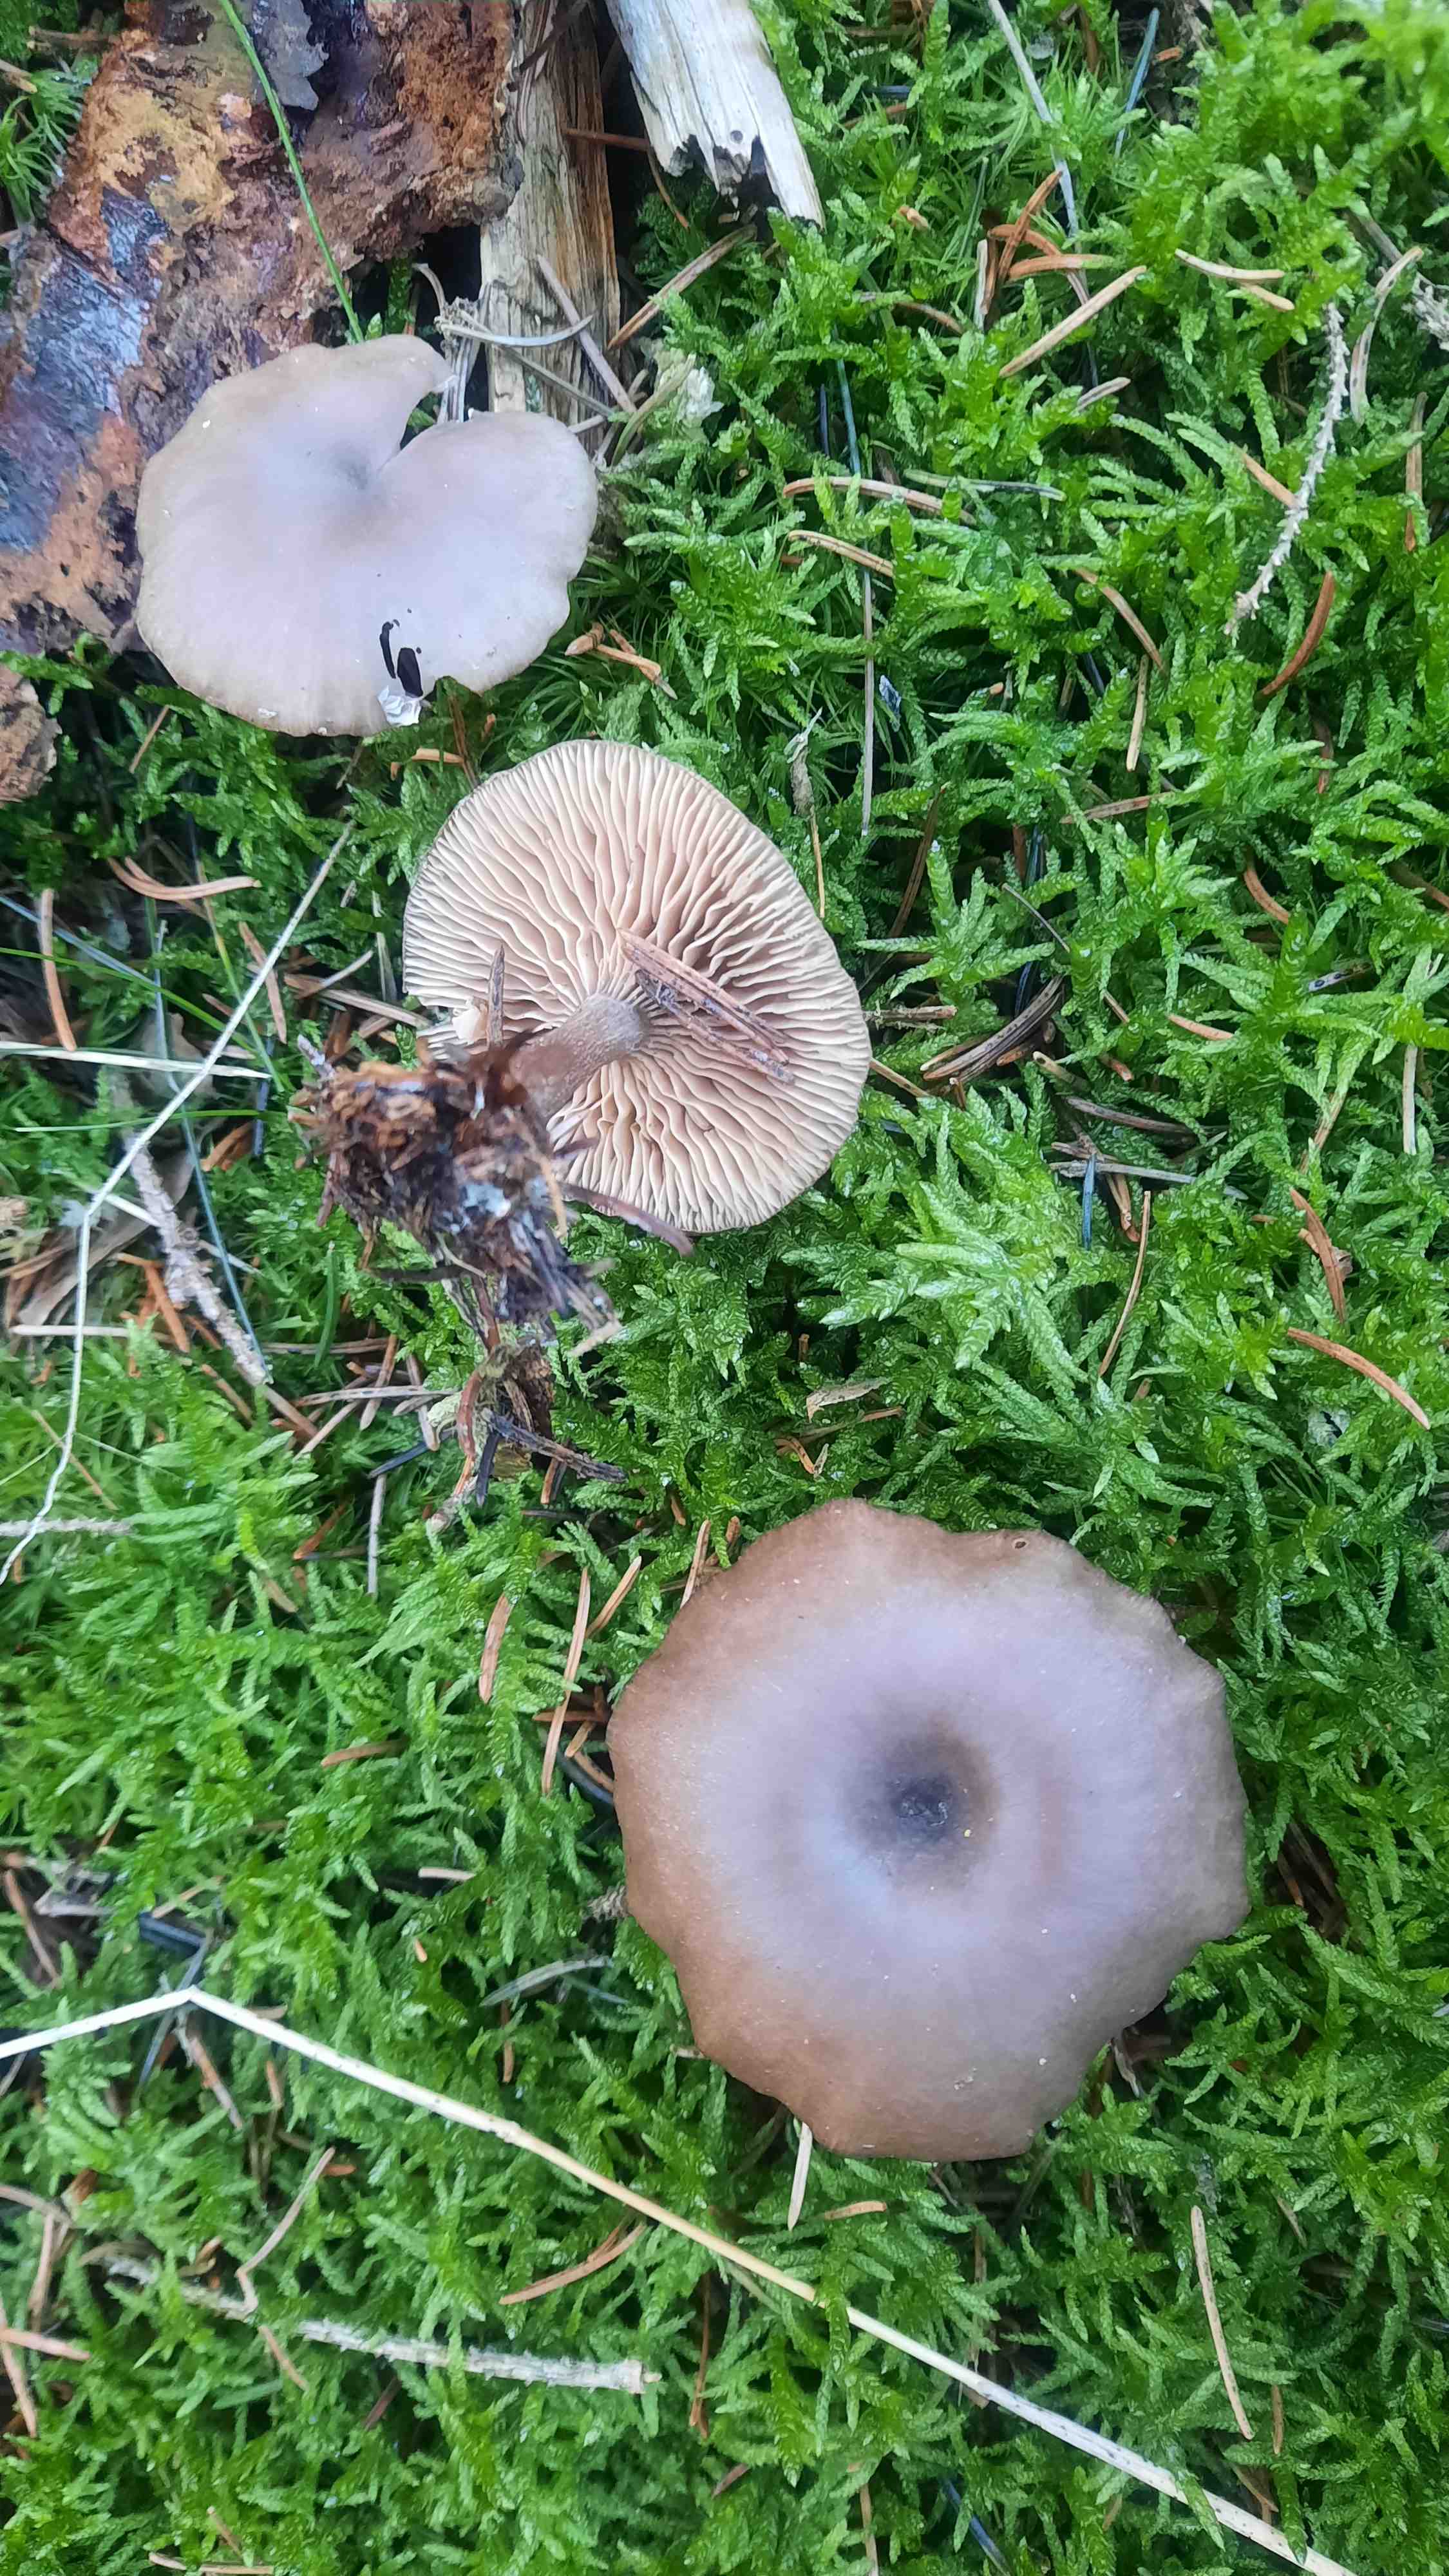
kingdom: Fungi
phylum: Basidiomycota
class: Agaricomycetes
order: Agaricales
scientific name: Agaricales
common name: champignonordenen
